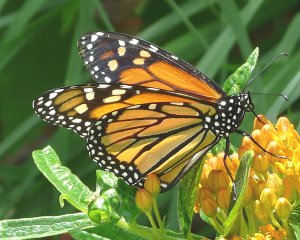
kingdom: Animalia
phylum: Arthropoda
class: Insecta
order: Lepidoptera
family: Nymphalidae
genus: Danaus
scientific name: Danaus plexippus
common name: Monarch
